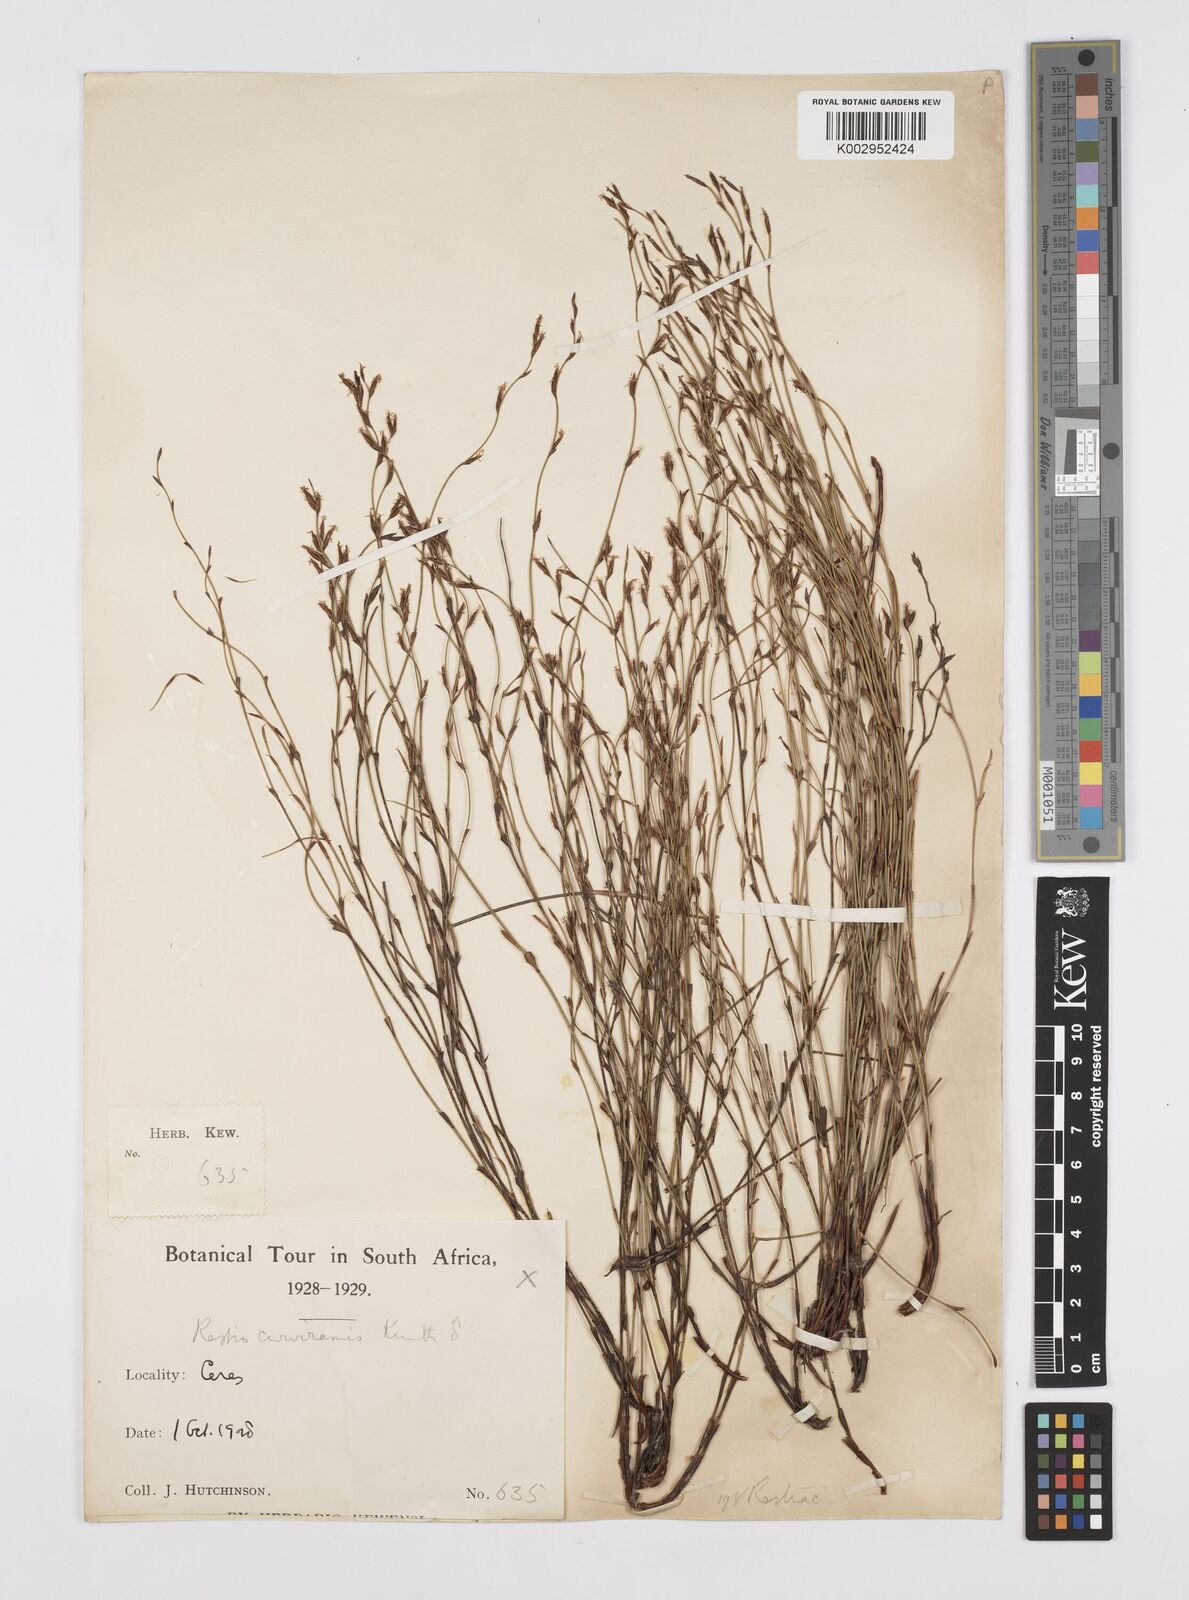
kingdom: Plantae
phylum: Tracheophyta
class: Liliopsida
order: Poales
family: Restionaceae
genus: Restio
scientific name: Restio curviramis
